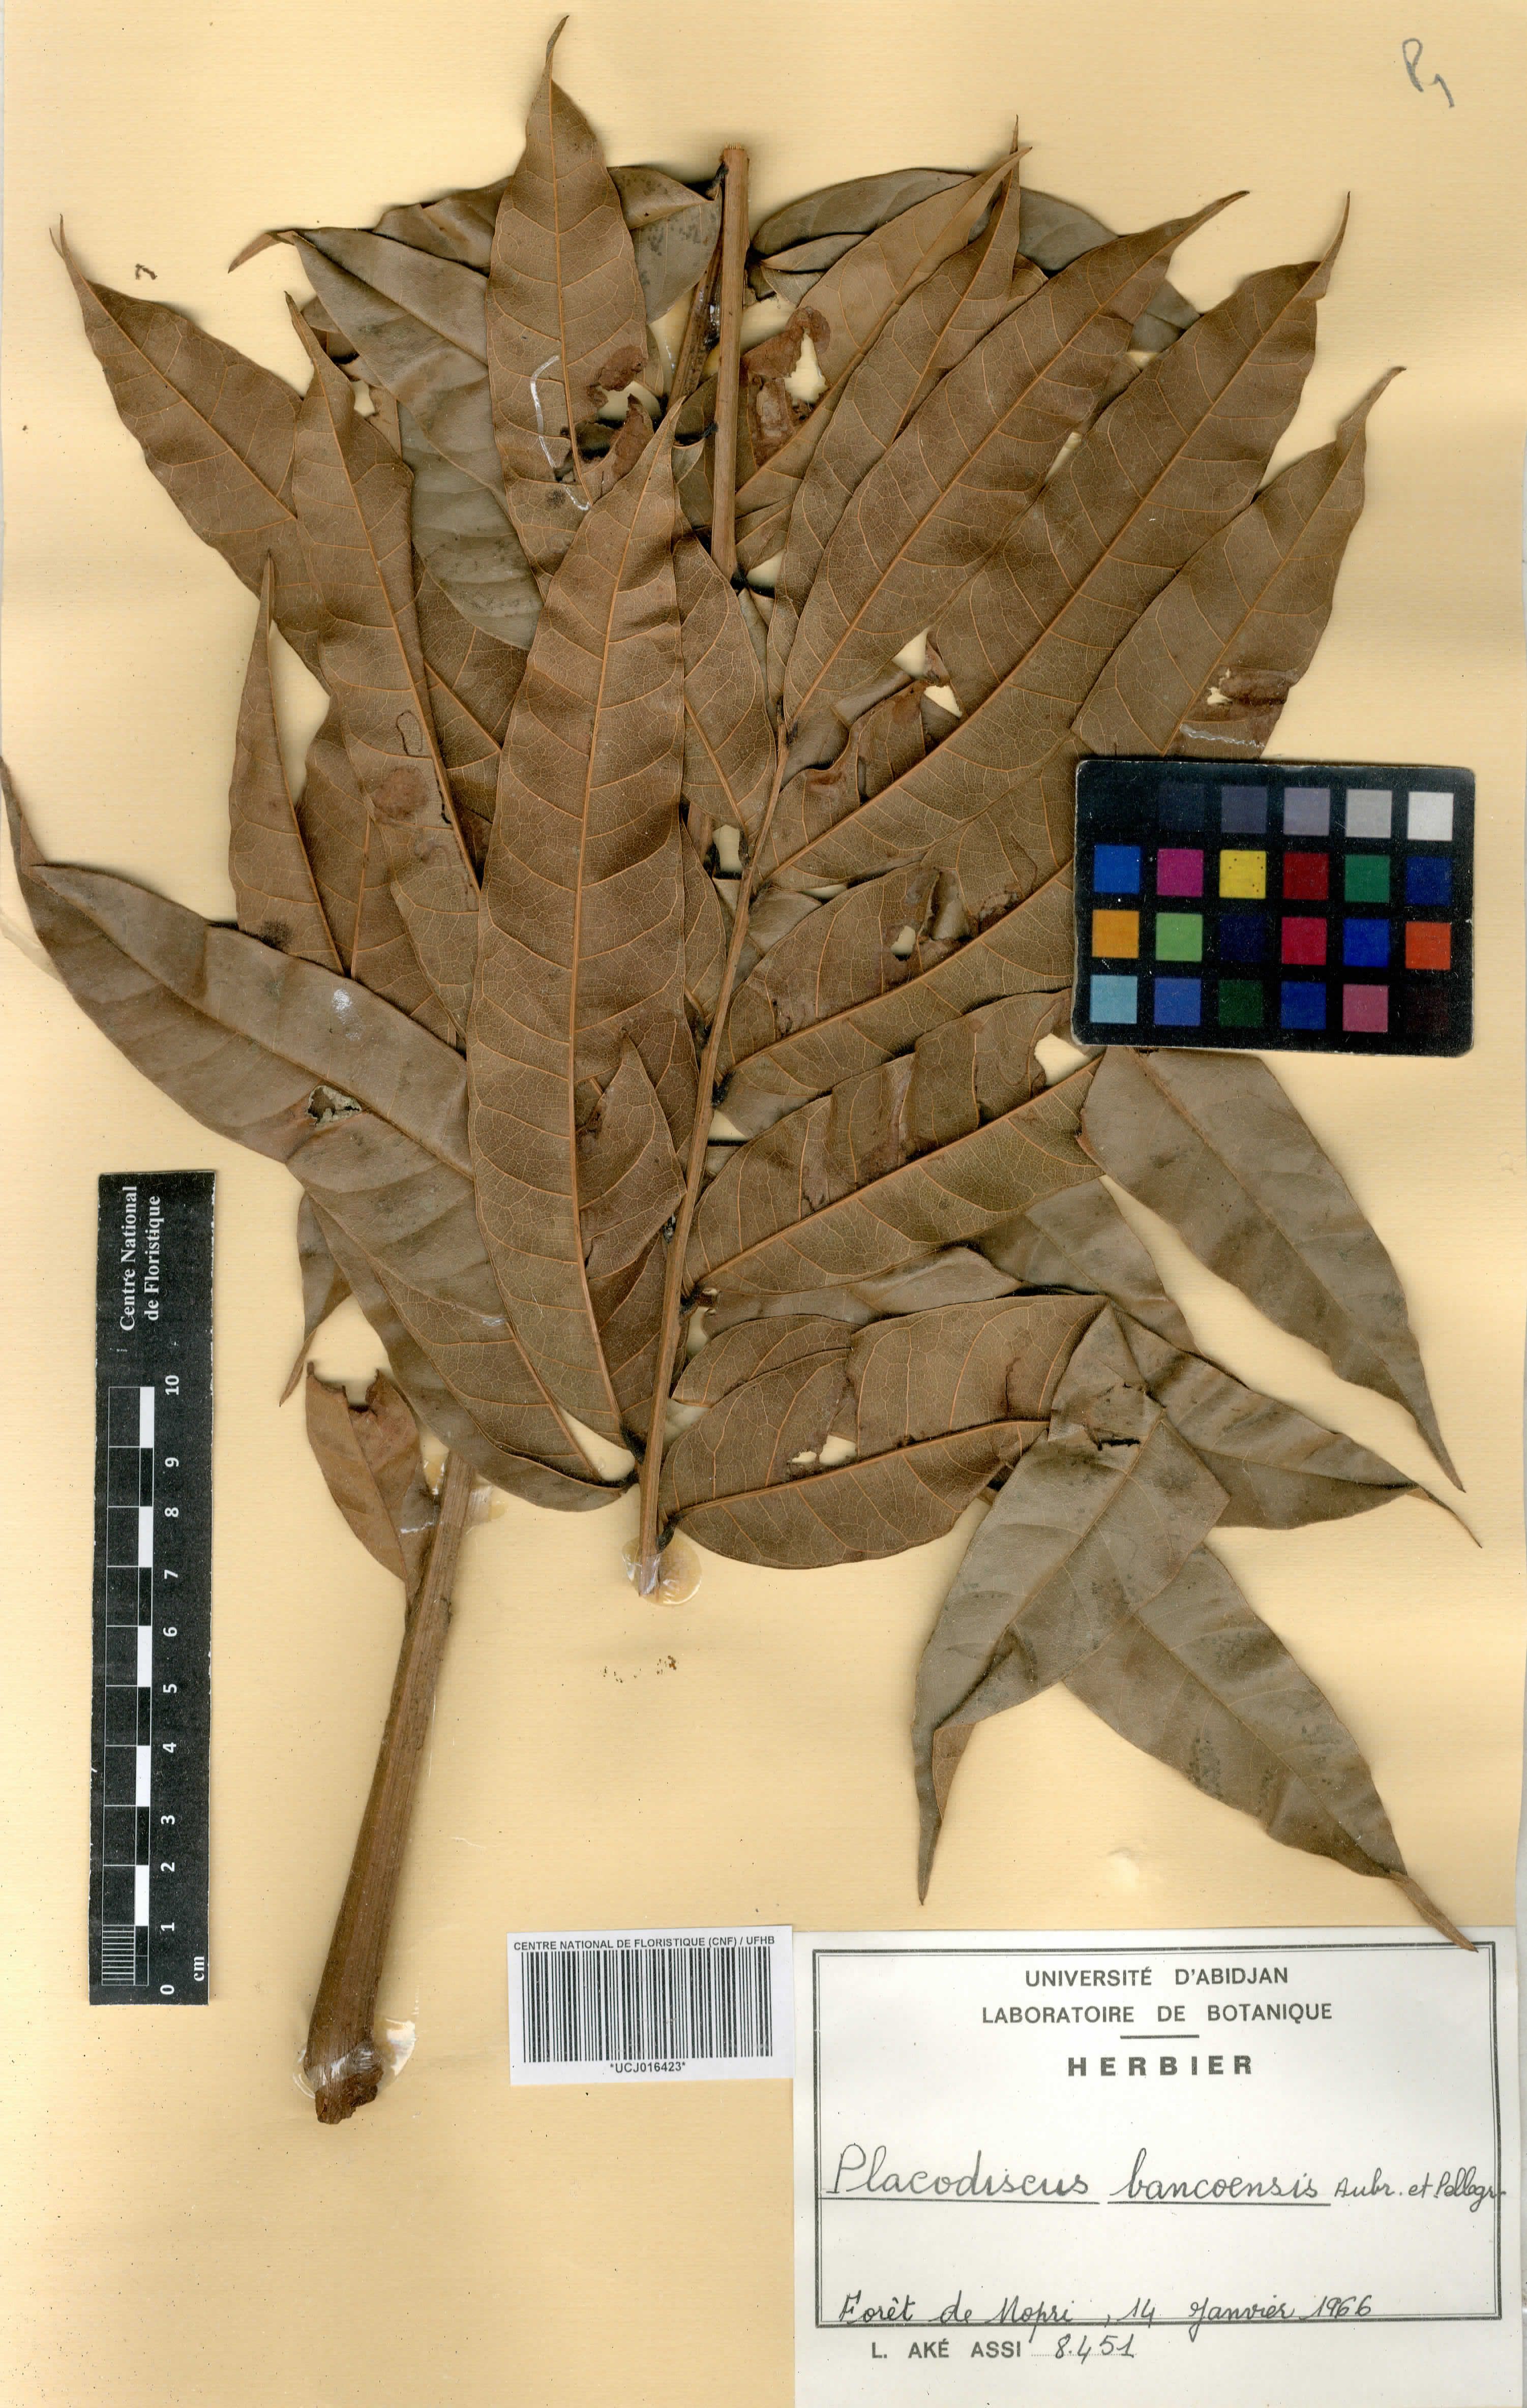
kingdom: Plantae
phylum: Tracheophyta
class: Magnoliopsida
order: Sapindales
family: Sapindaceae
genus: Placodiscus
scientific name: Placodiscus bancoensis
